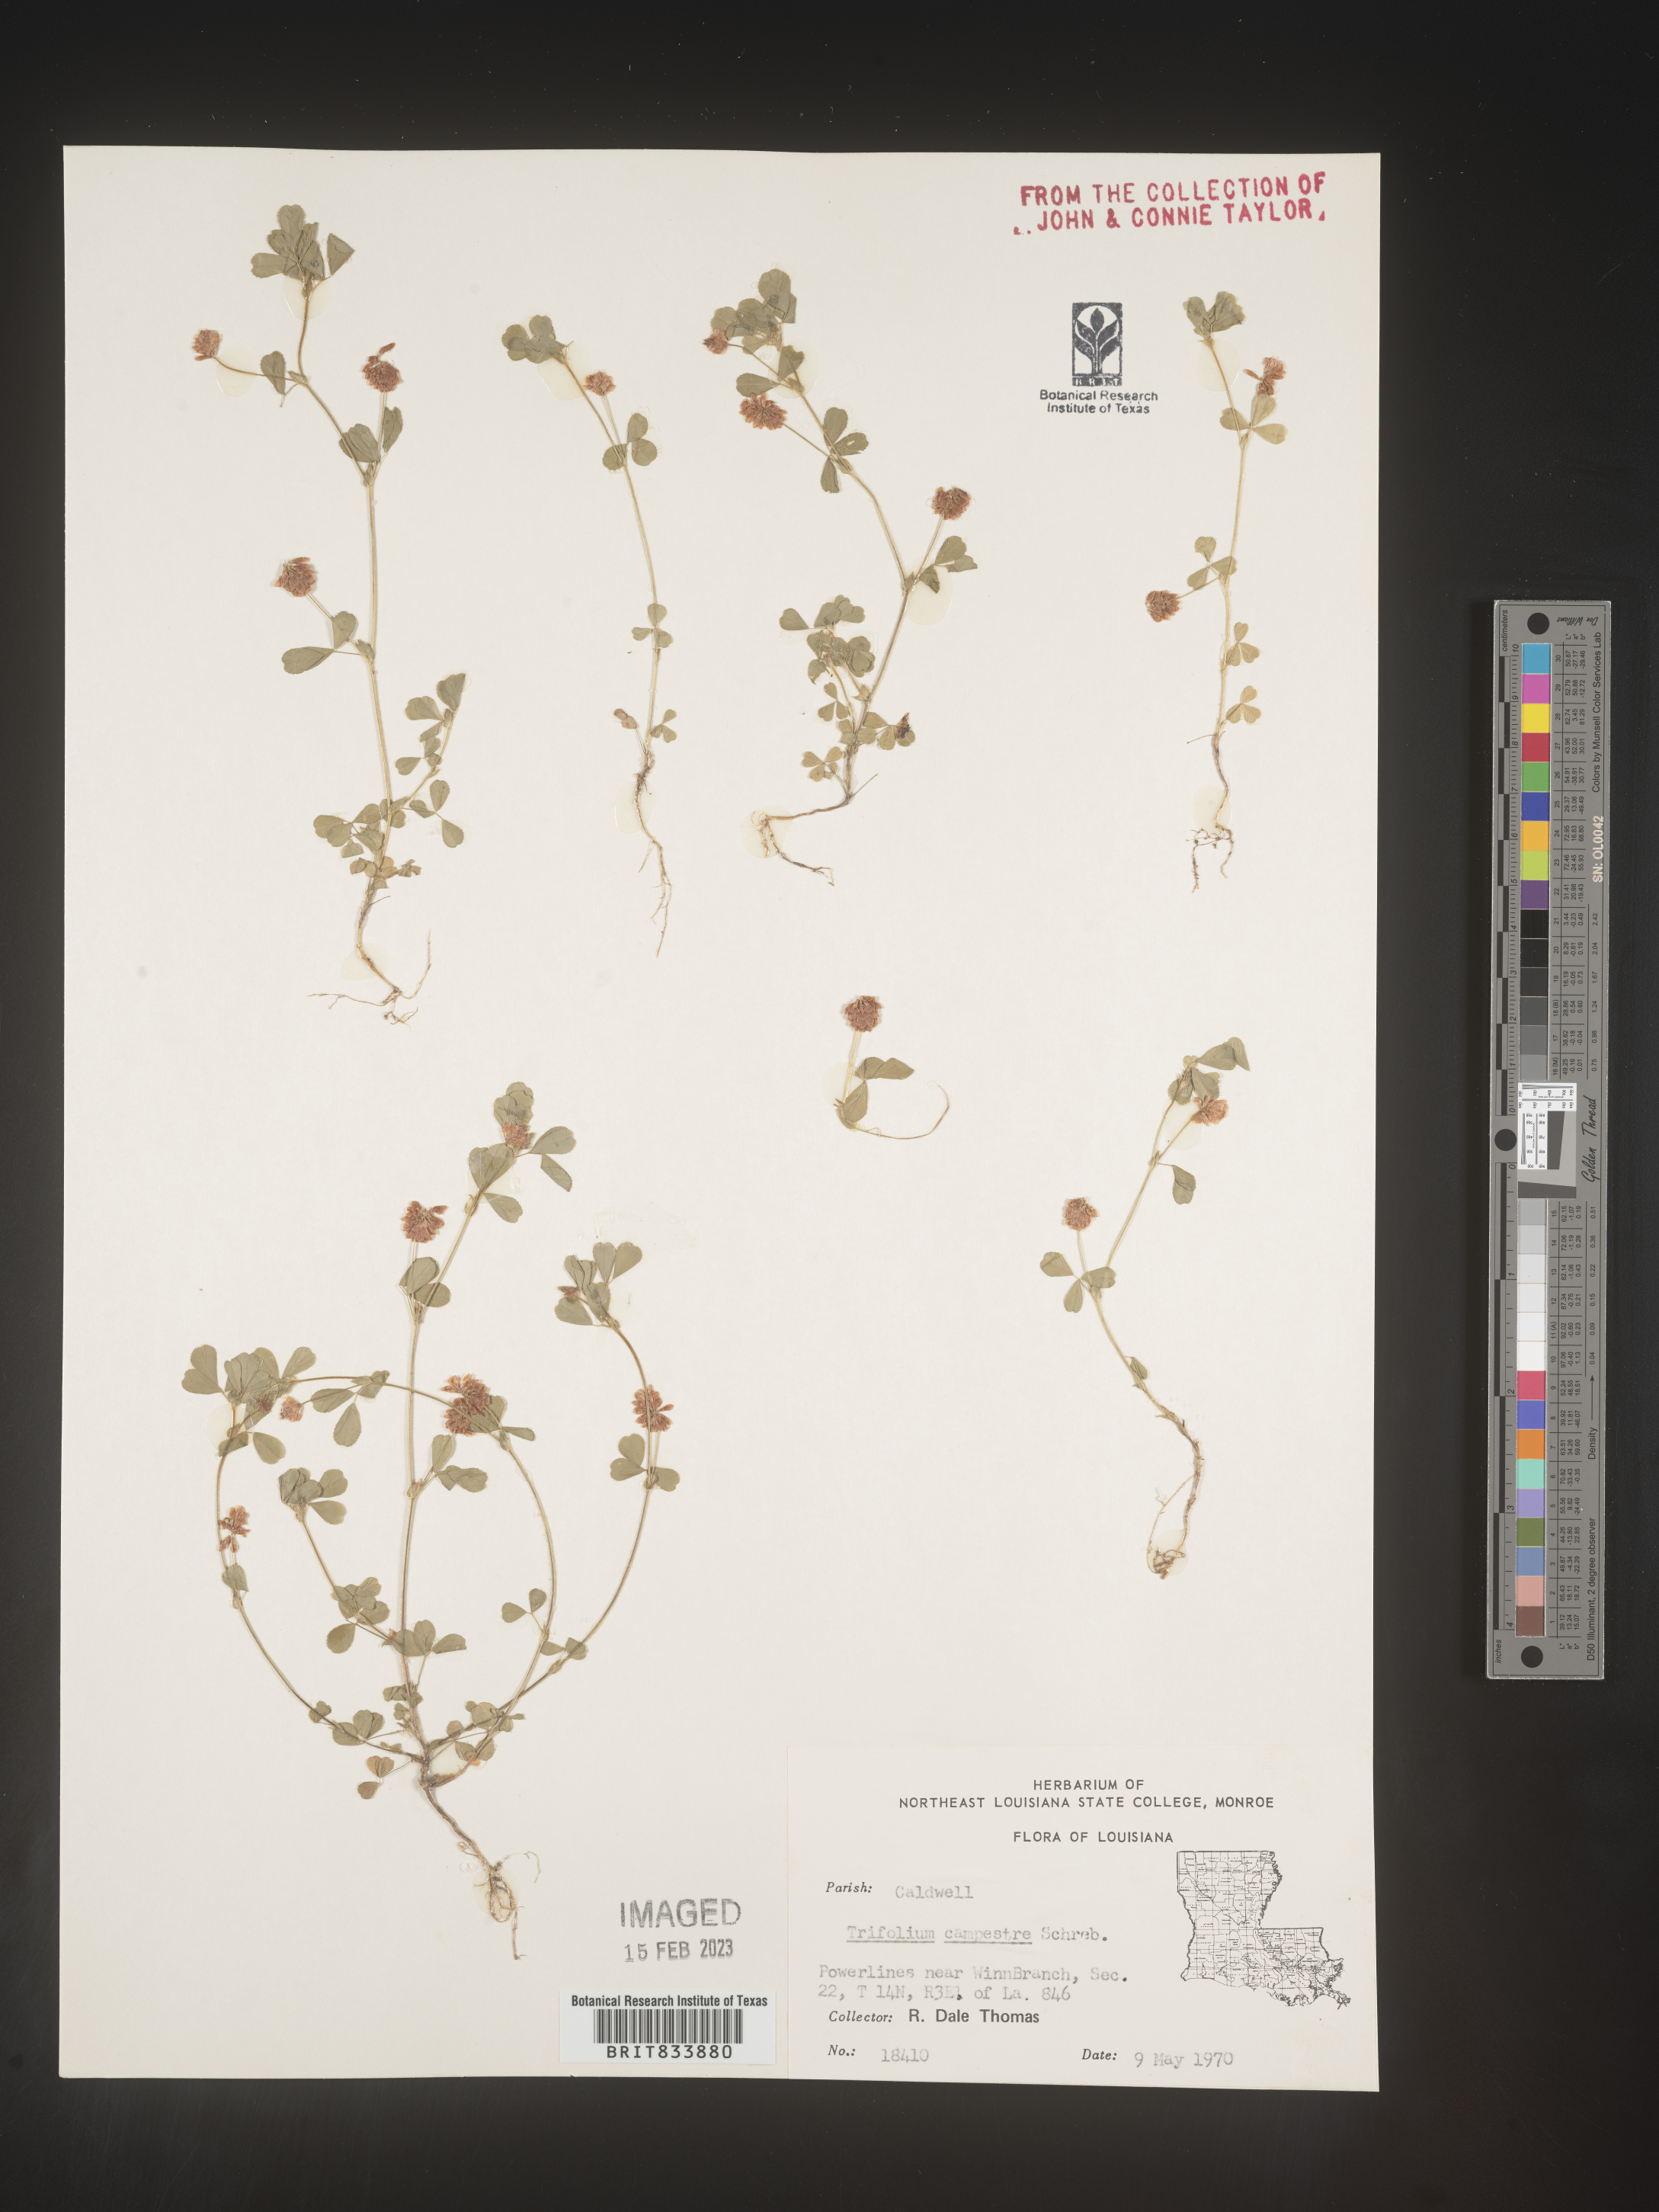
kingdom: Plantae
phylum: Tracheophyta
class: Magnoliopsida
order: Fabales
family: Fabaceae
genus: Trifolium
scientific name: Trifolium campestre
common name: Field clover
